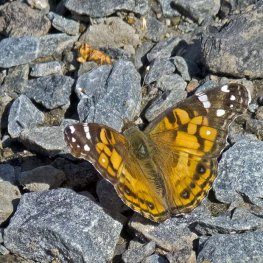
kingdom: Animalia
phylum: Arthropoda
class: Insecta
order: Lepidoptera
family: Nymphalidae
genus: Vanessa
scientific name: Vanessa virginiensis
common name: American Lady
